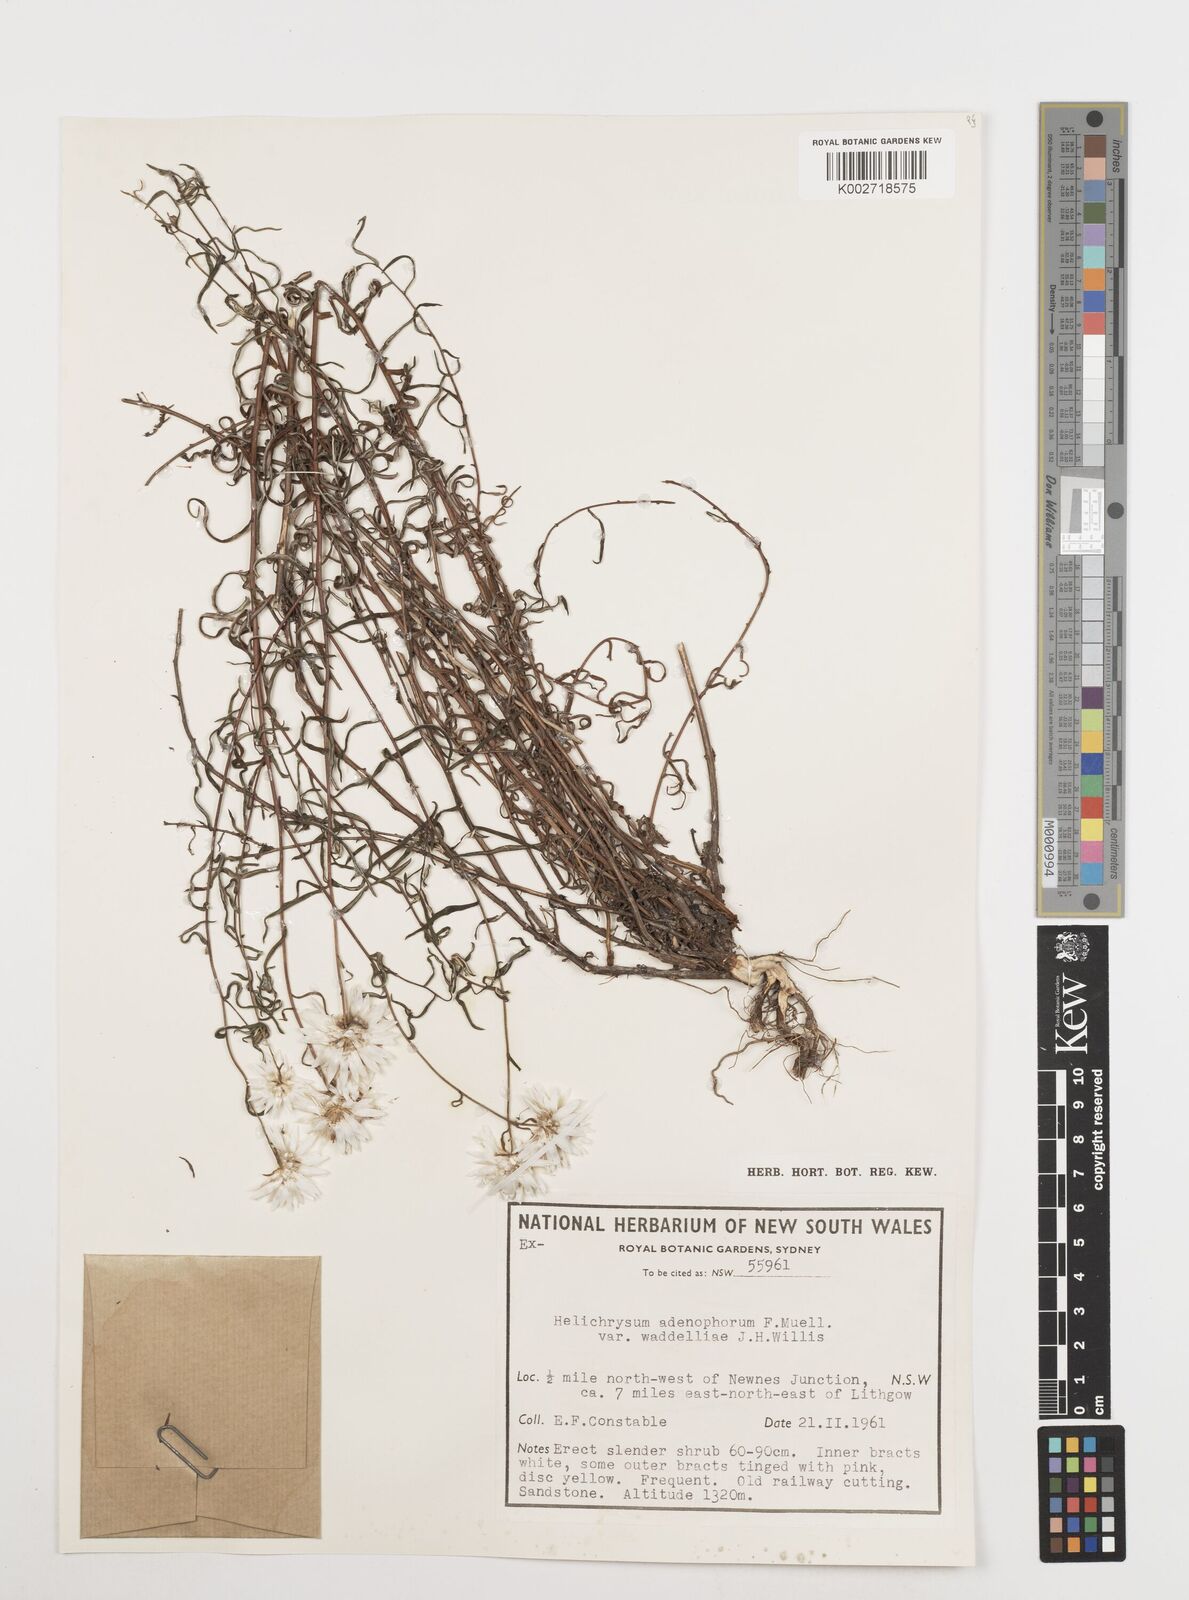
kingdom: Plantae
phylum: Tracheophyta
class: Magnoliopsida
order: Asterales
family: Asteraceae
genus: Coronidium
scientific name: Coronidium waddelliae
